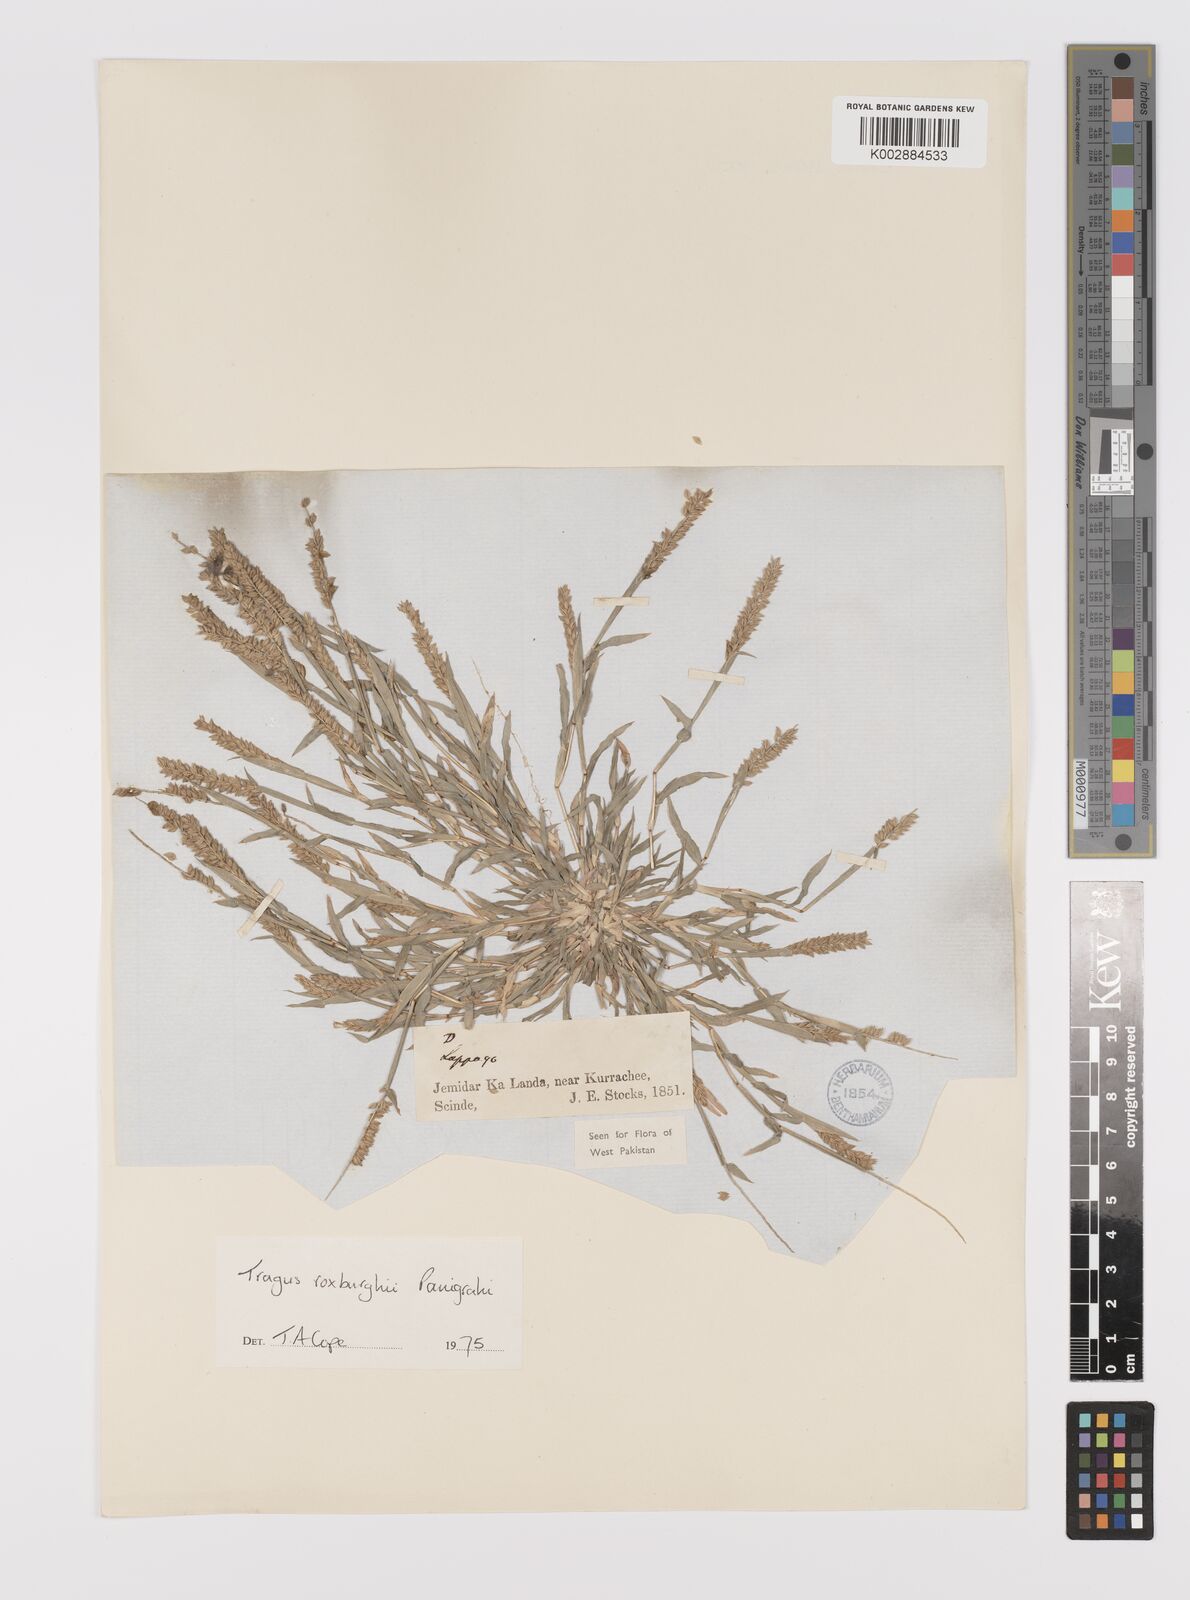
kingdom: Plantae
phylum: Tracheophyta
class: Liliopsida
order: Poales
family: Poaceae
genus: Tragus
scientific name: Tragus mongolorum
